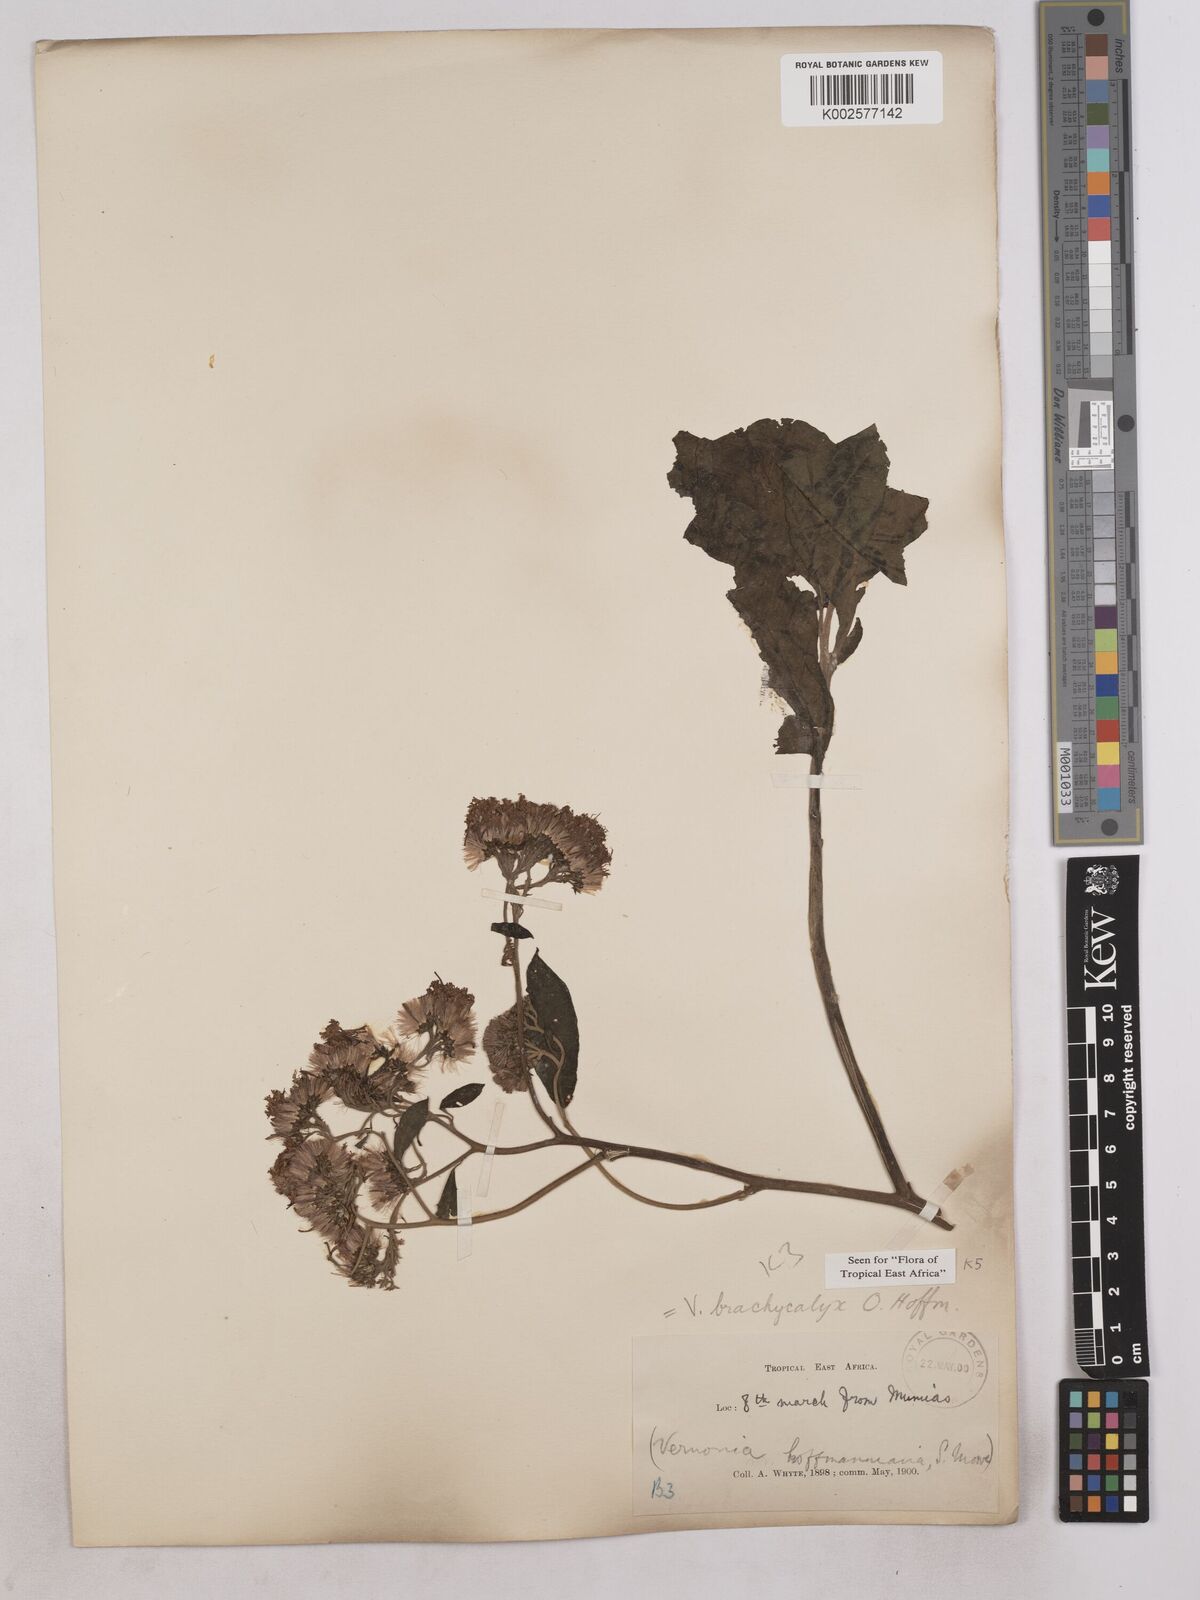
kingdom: Plantae
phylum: Tracheophyta
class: Magnoliopsida
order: Asterales
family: Asteraceae
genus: Hoffmannanthus
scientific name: Hoffmannanthus abbotianus
